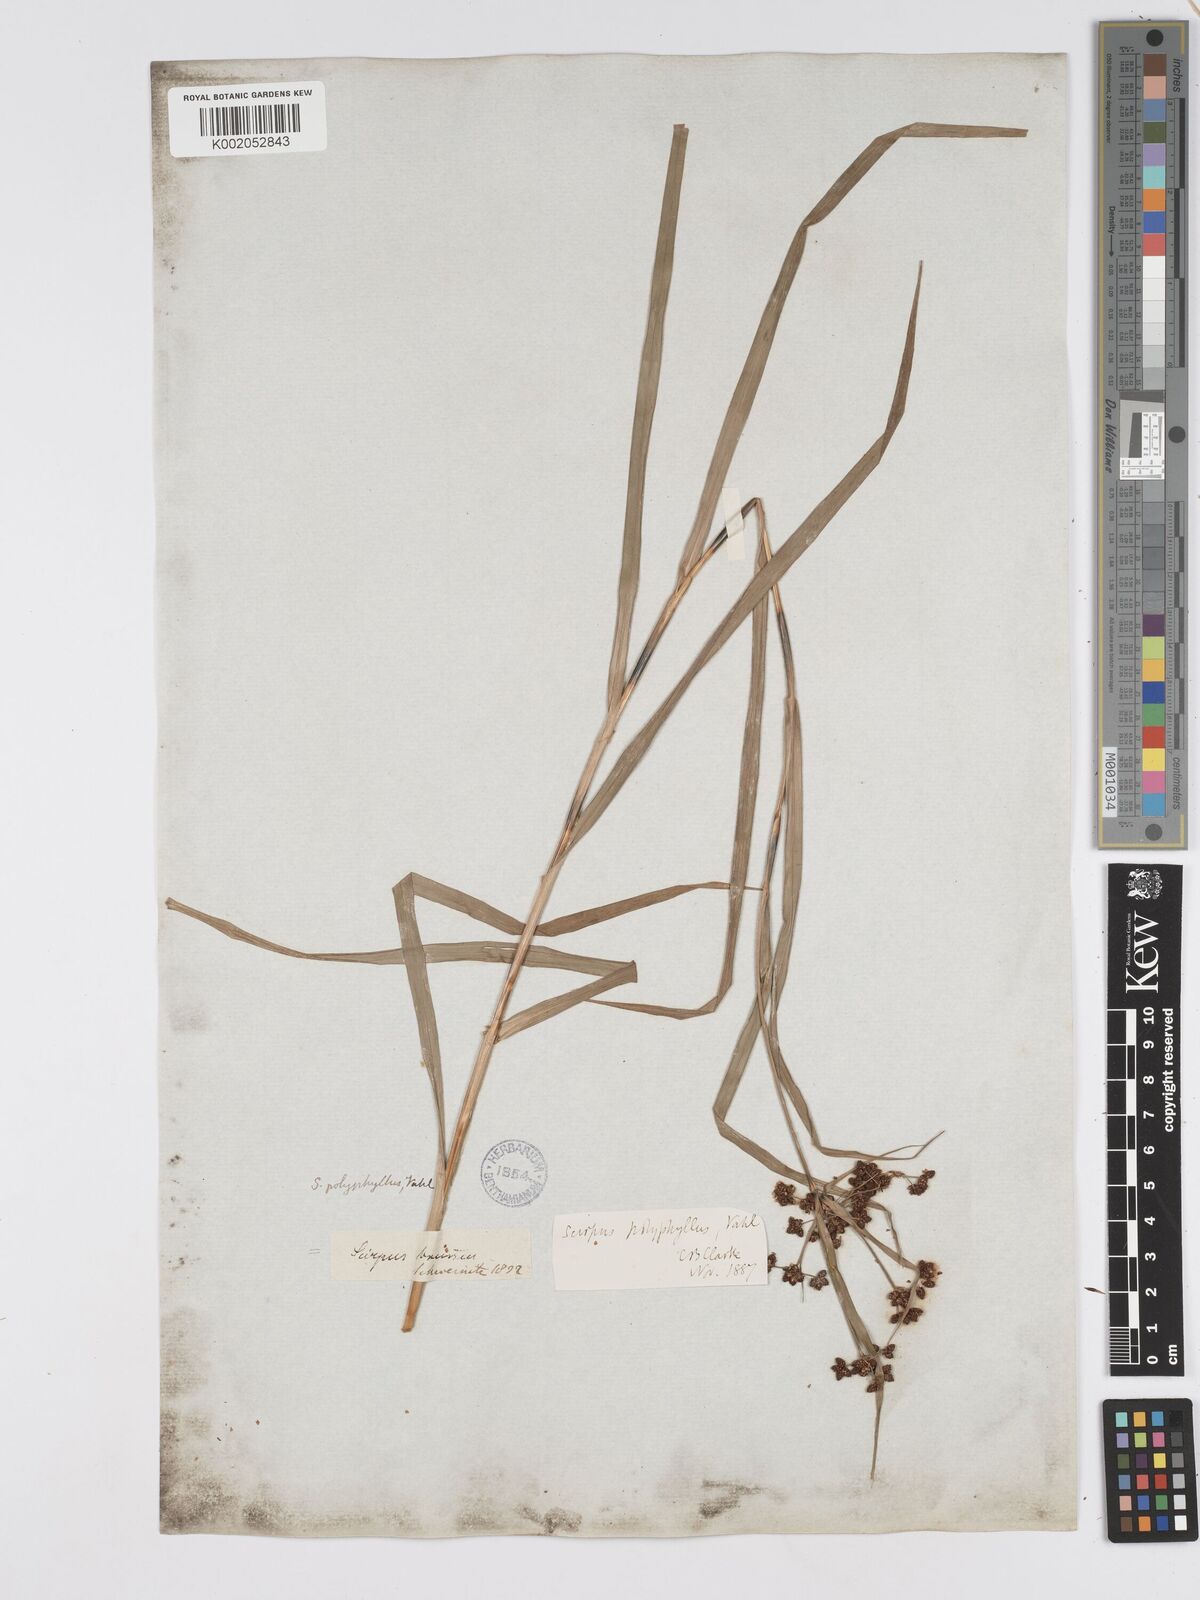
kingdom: Plantae
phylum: Tracheophyta
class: Liliopsida
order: Poales
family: Cyperaceae
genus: Scirpus
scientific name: Scirpus polyphyllus
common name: Leafy bulrush
